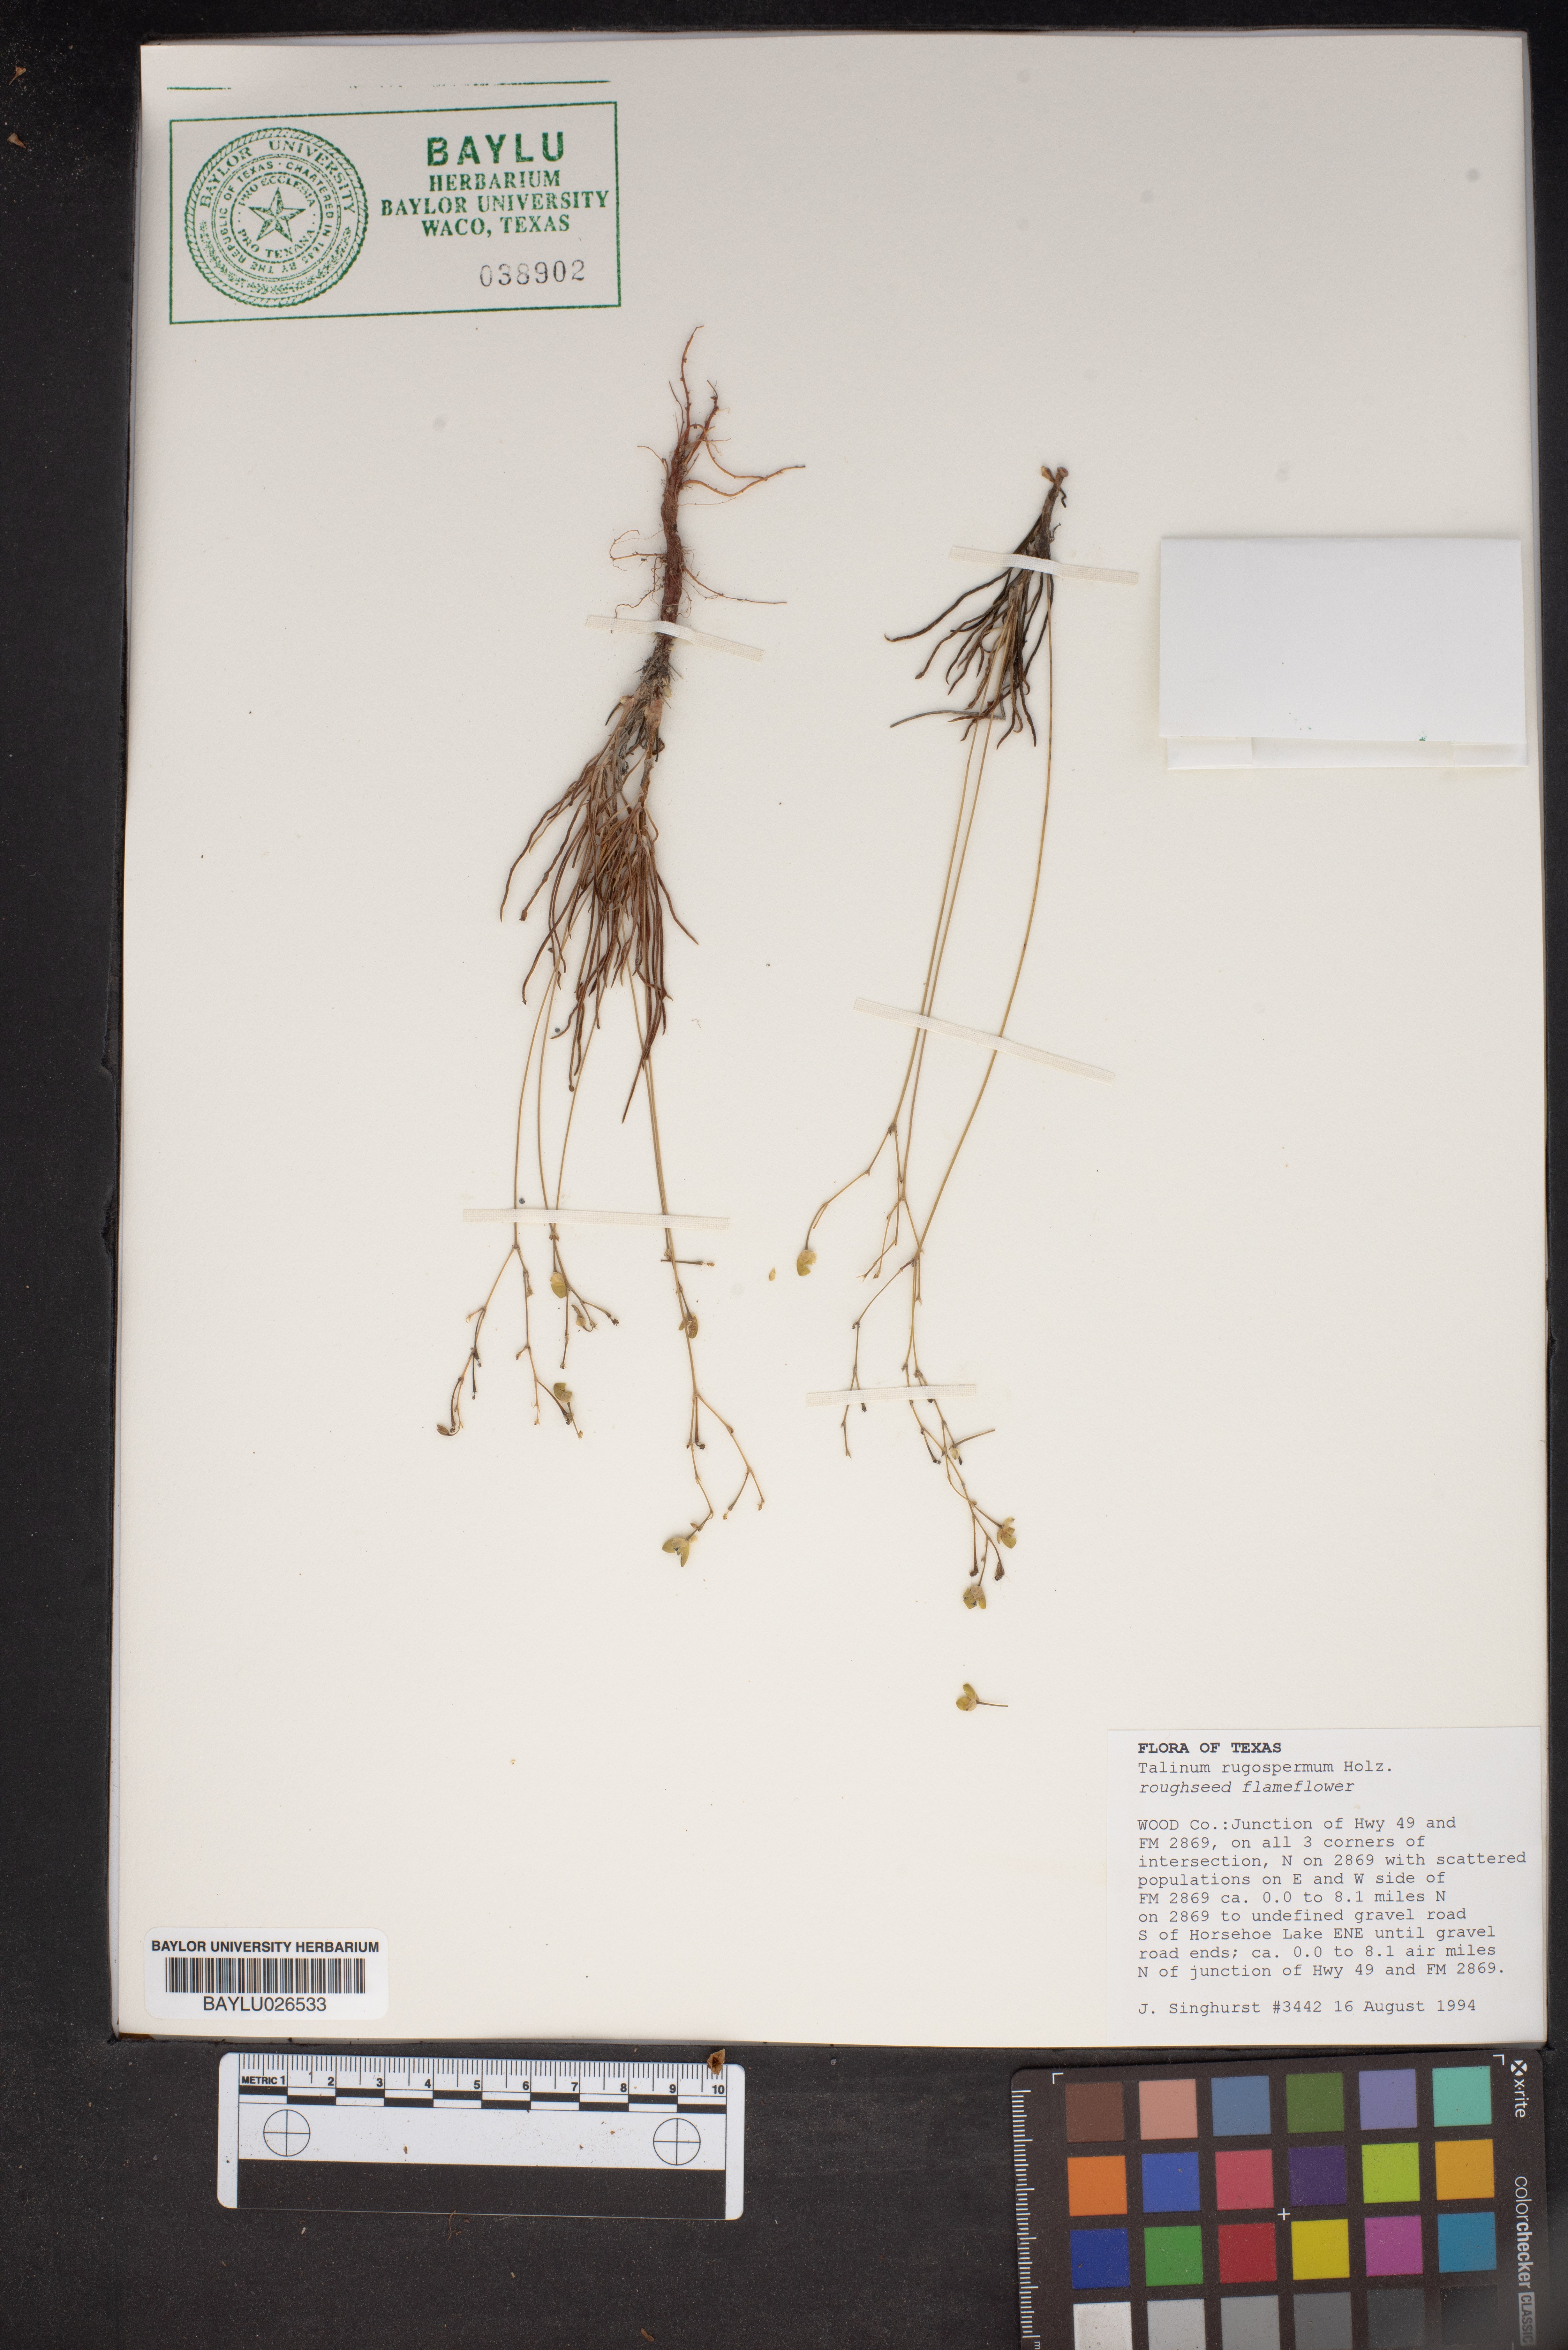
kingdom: Plantae
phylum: Tracheophyta
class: Magnoliopsida
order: Caryophyllales
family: Montiaceae
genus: Phemeranthus
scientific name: Phemeranthus rugospermus
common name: Prairie fameflower
